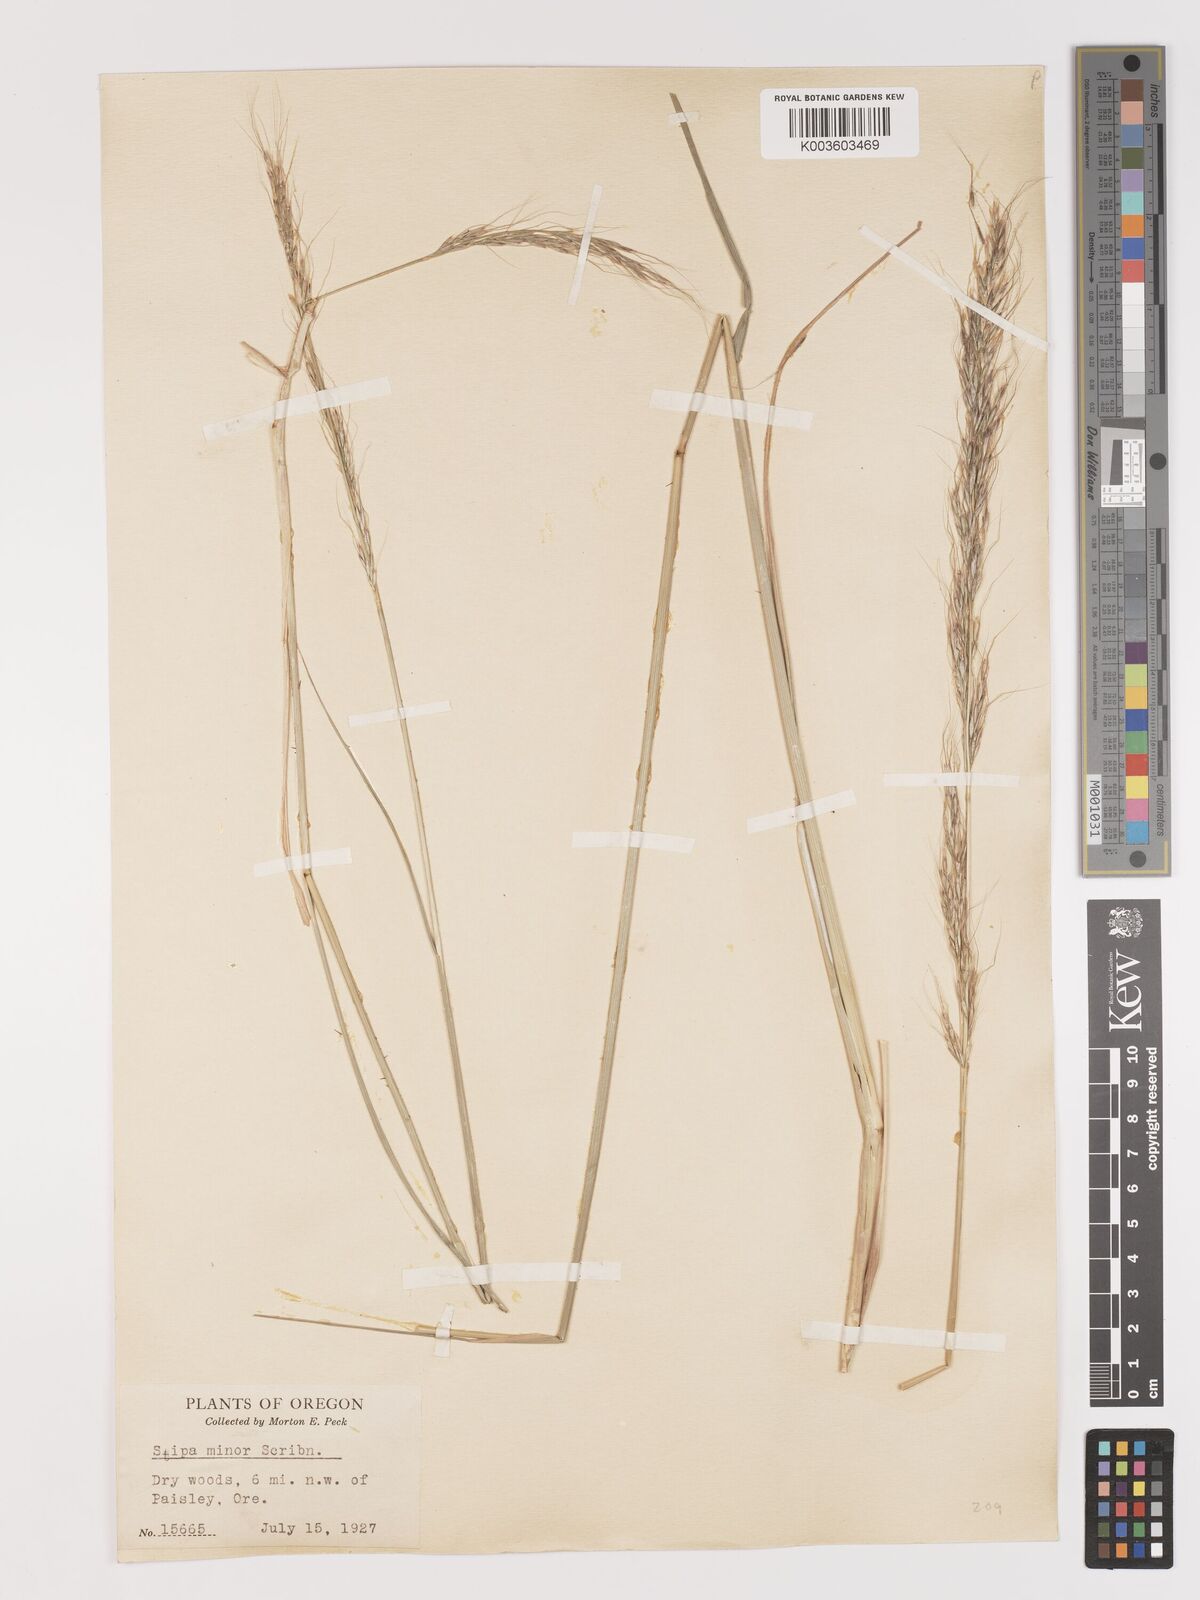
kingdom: Plantae
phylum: Tracheophyta
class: Liliopsida
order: Poales
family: Poaceae
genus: Eriocoma
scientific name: Eriocoma nelsonii
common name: Nelson's needlegrass
